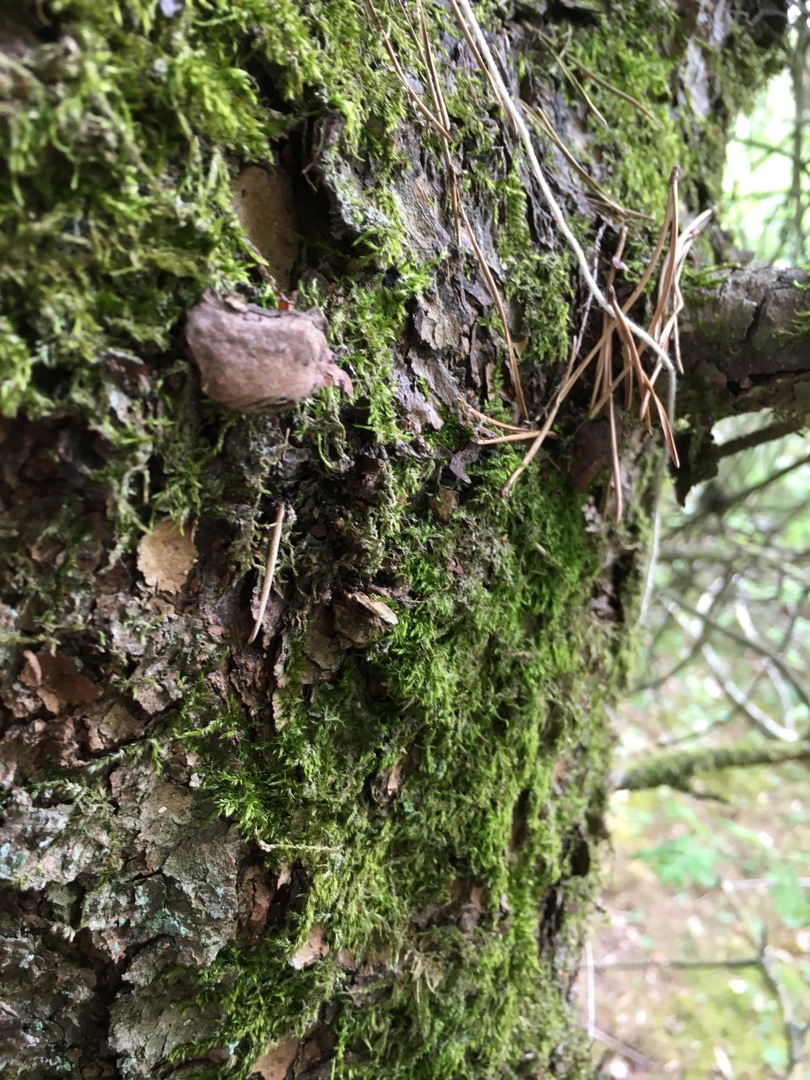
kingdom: Plantae
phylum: Bryophyta
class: Bryopsida
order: Hypnales
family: Hypnaceae
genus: Hypnum
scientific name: Hypnum
